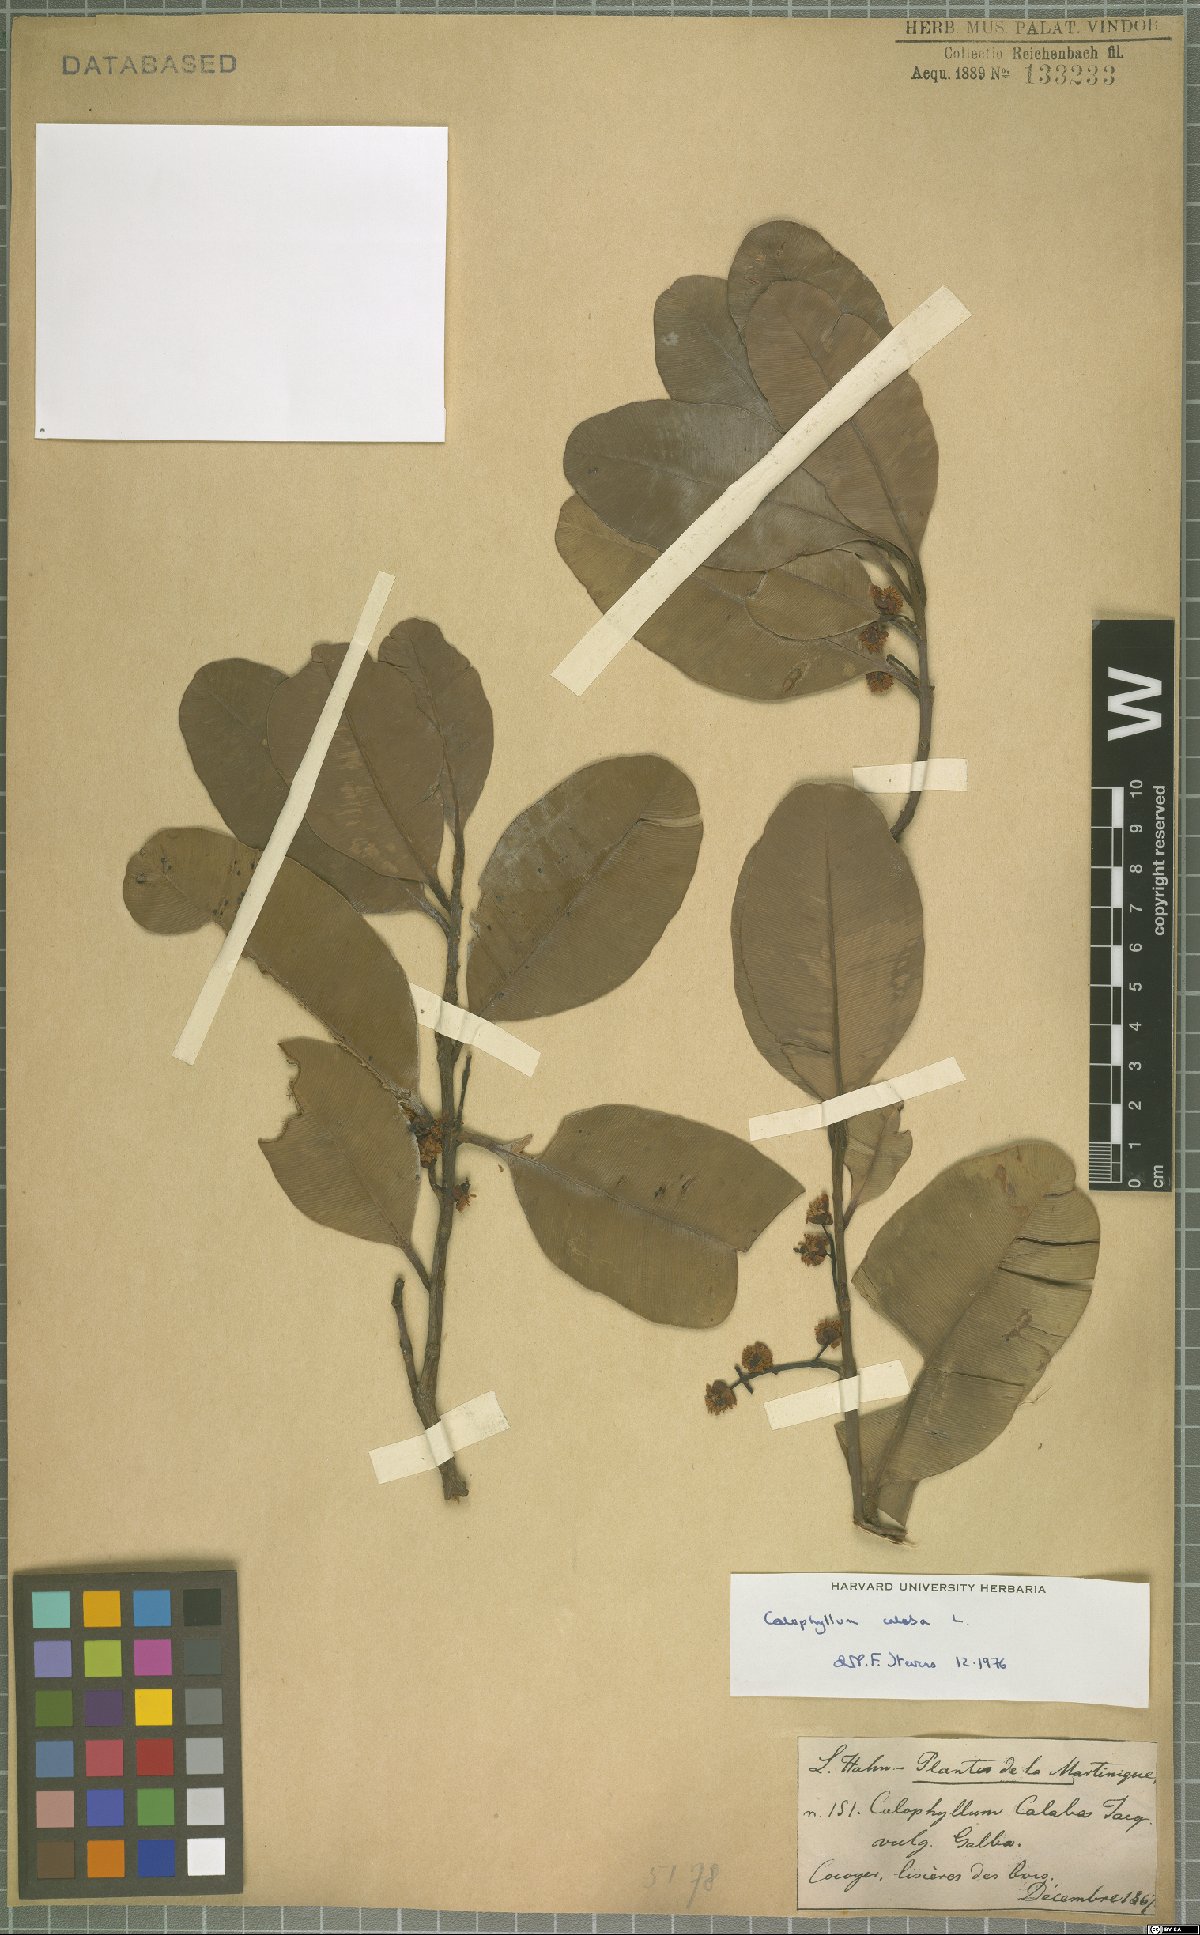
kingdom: Plantae
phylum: Tracheophyta
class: Magnoliopsida
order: Malpighiales
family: Calophyllaceae
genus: Calophyllum
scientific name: Calophyllum calaba
